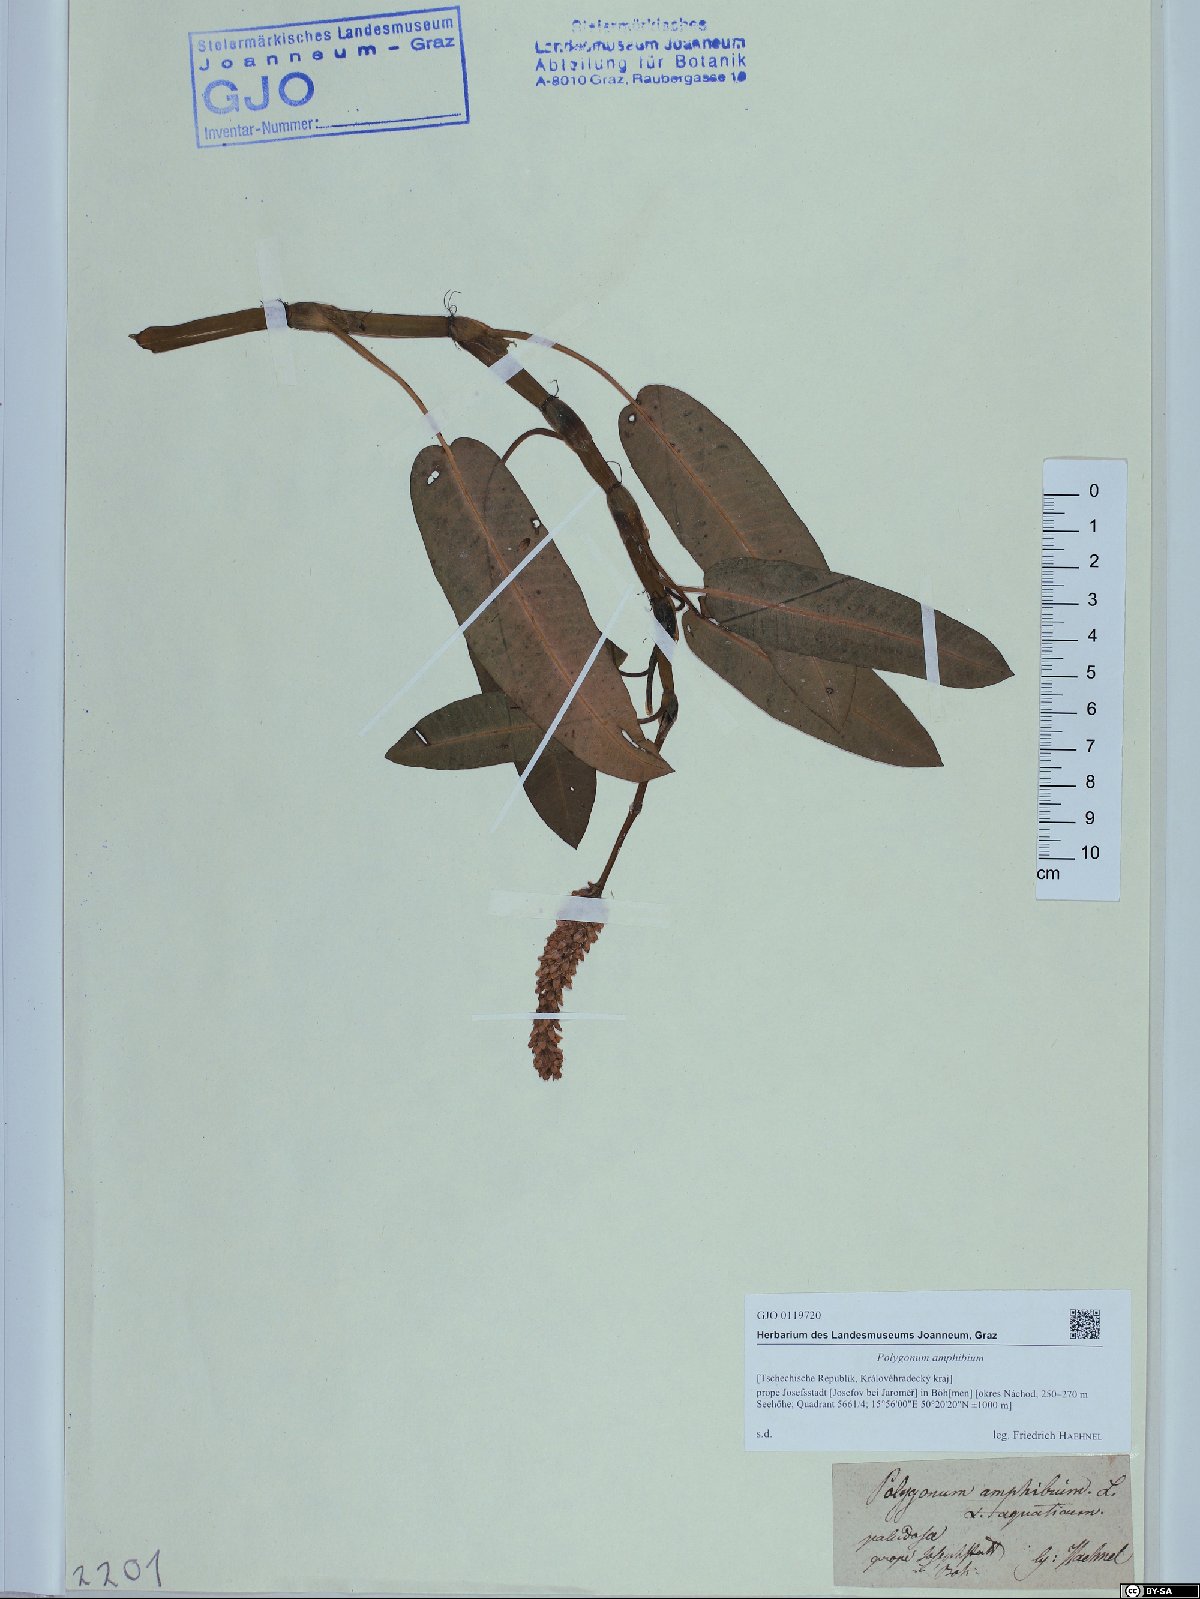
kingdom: Plantae
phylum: Tracheophyta
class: Magnoliopsida
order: Caryophyllales
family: Polygonaceae
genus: Persicaria
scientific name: Persicaria amphibia
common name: Amphibious bistort
